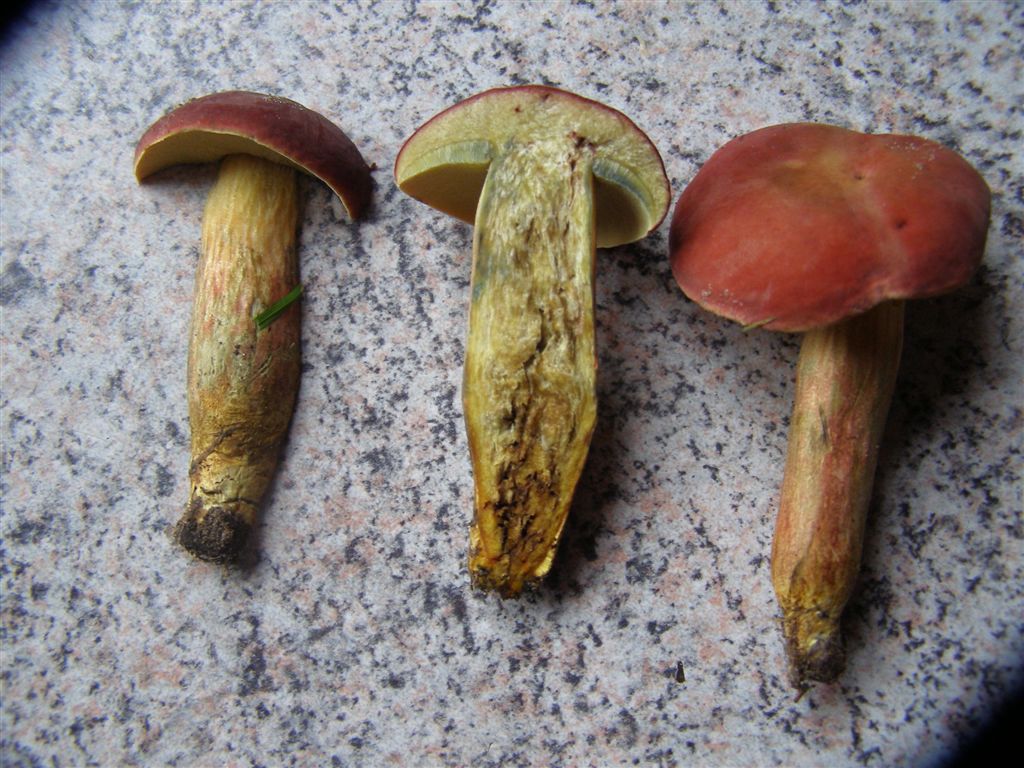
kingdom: Fungi
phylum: Basidiomycota
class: Agaricomycetes
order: Boletales
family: Boletaceae
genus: Hortiboletus
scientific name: Hortiboletus rubellus
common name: blodrød rørhat
